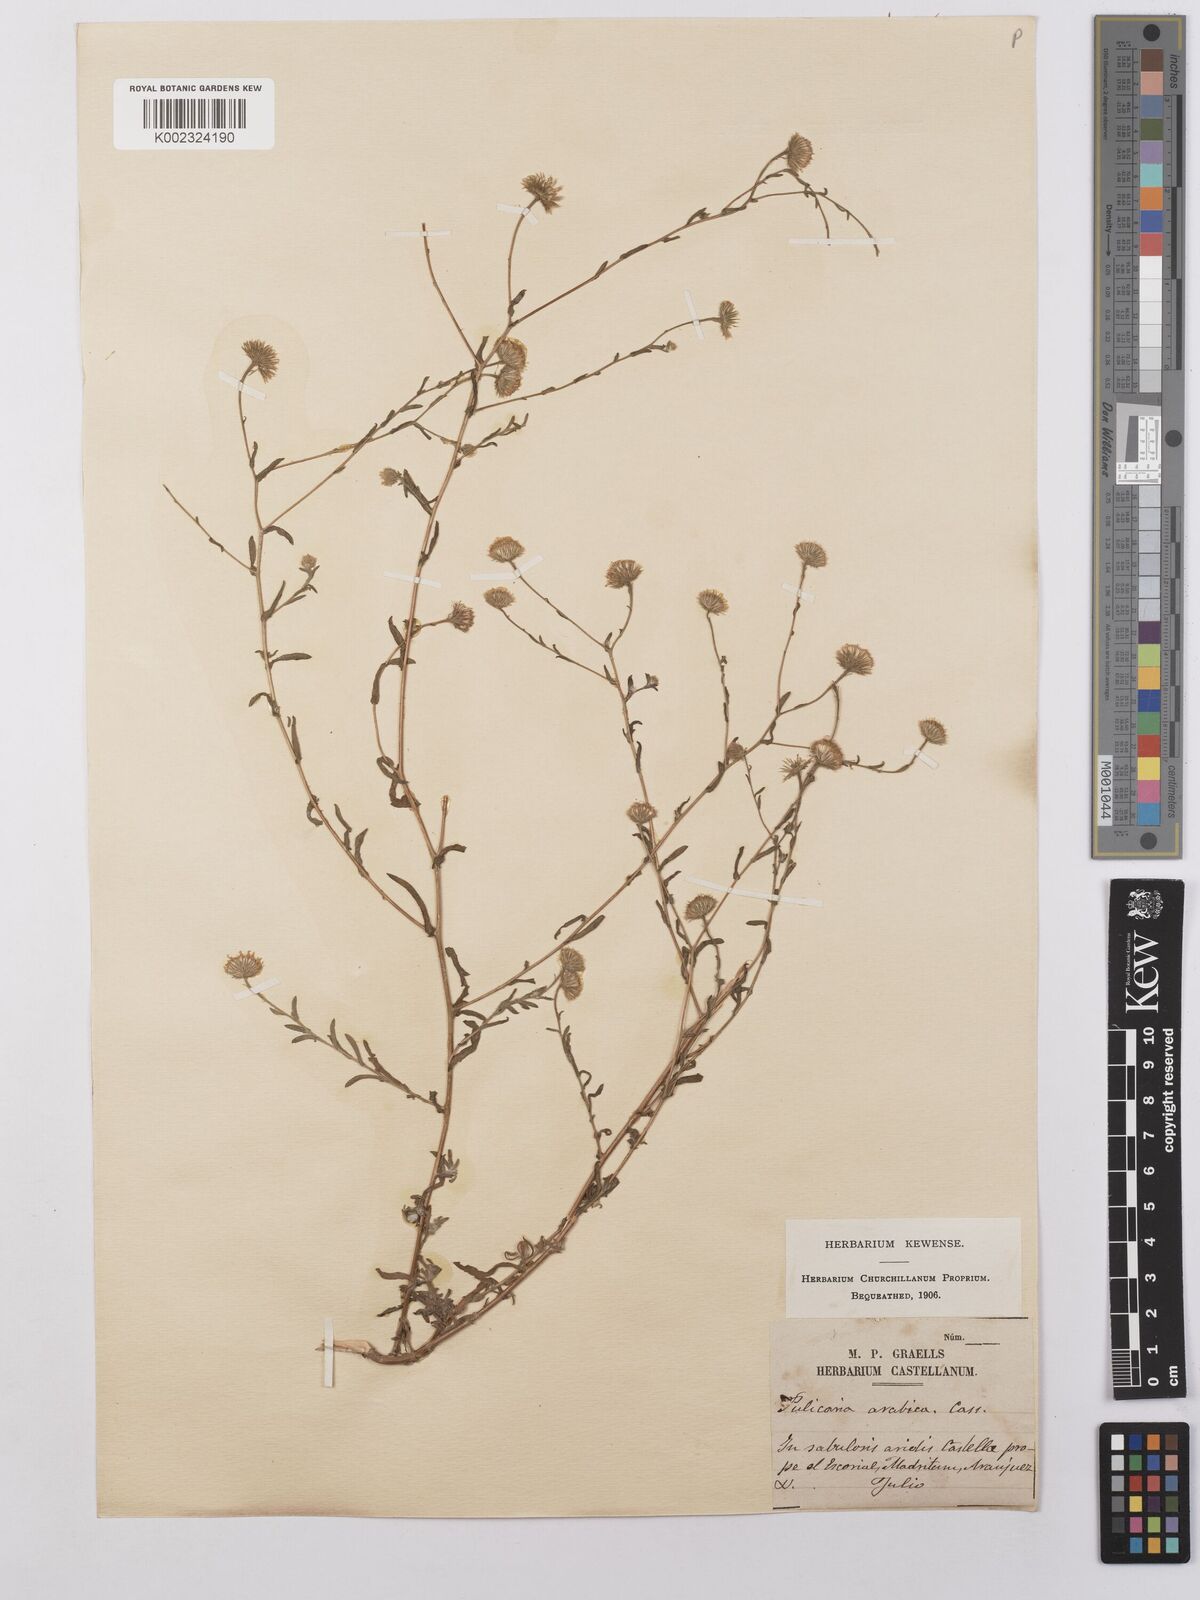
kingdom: Plantae
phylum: Tracheophyta
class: Magnoliopsida
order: Asterales
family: Asteraceae
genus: Pulicaria
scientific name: Pulicaria arabica
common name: Ladies' false fleabane
